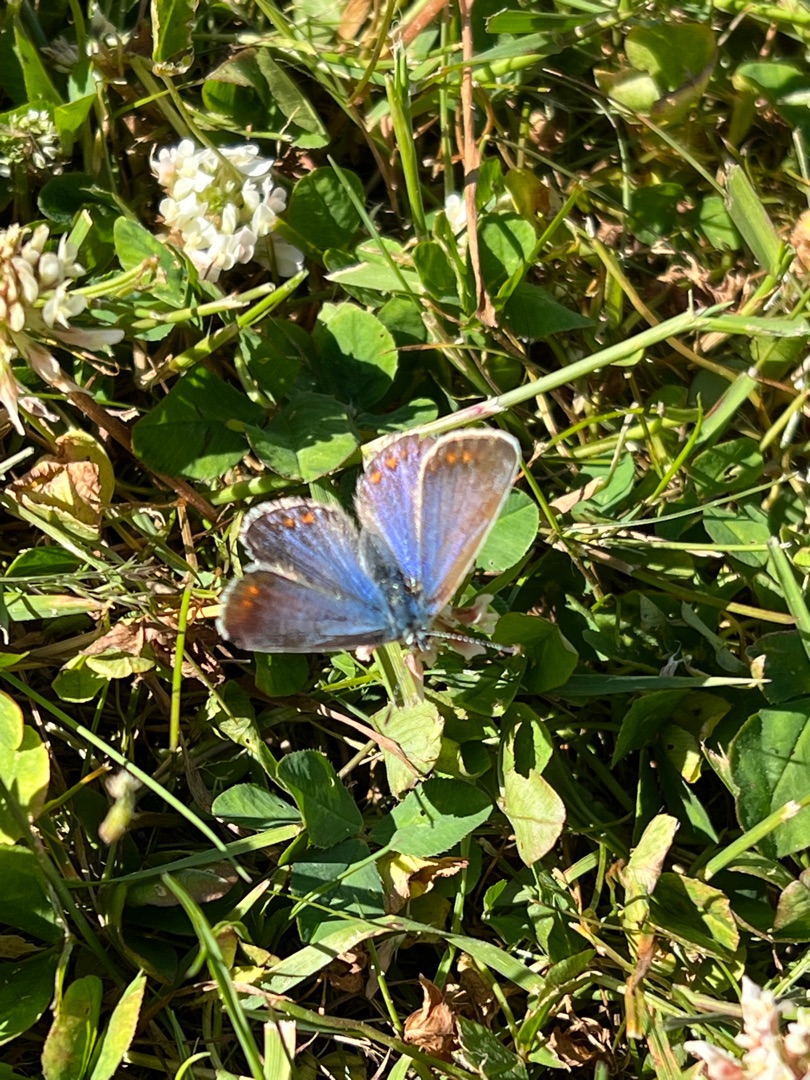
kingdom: Animalia
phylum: Arthropoda
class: Insecta
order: Lepidoptera
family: Lycaenidae
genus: Polyommatus
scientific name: Polyommatus icarus
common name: Almindelig blåfugl
